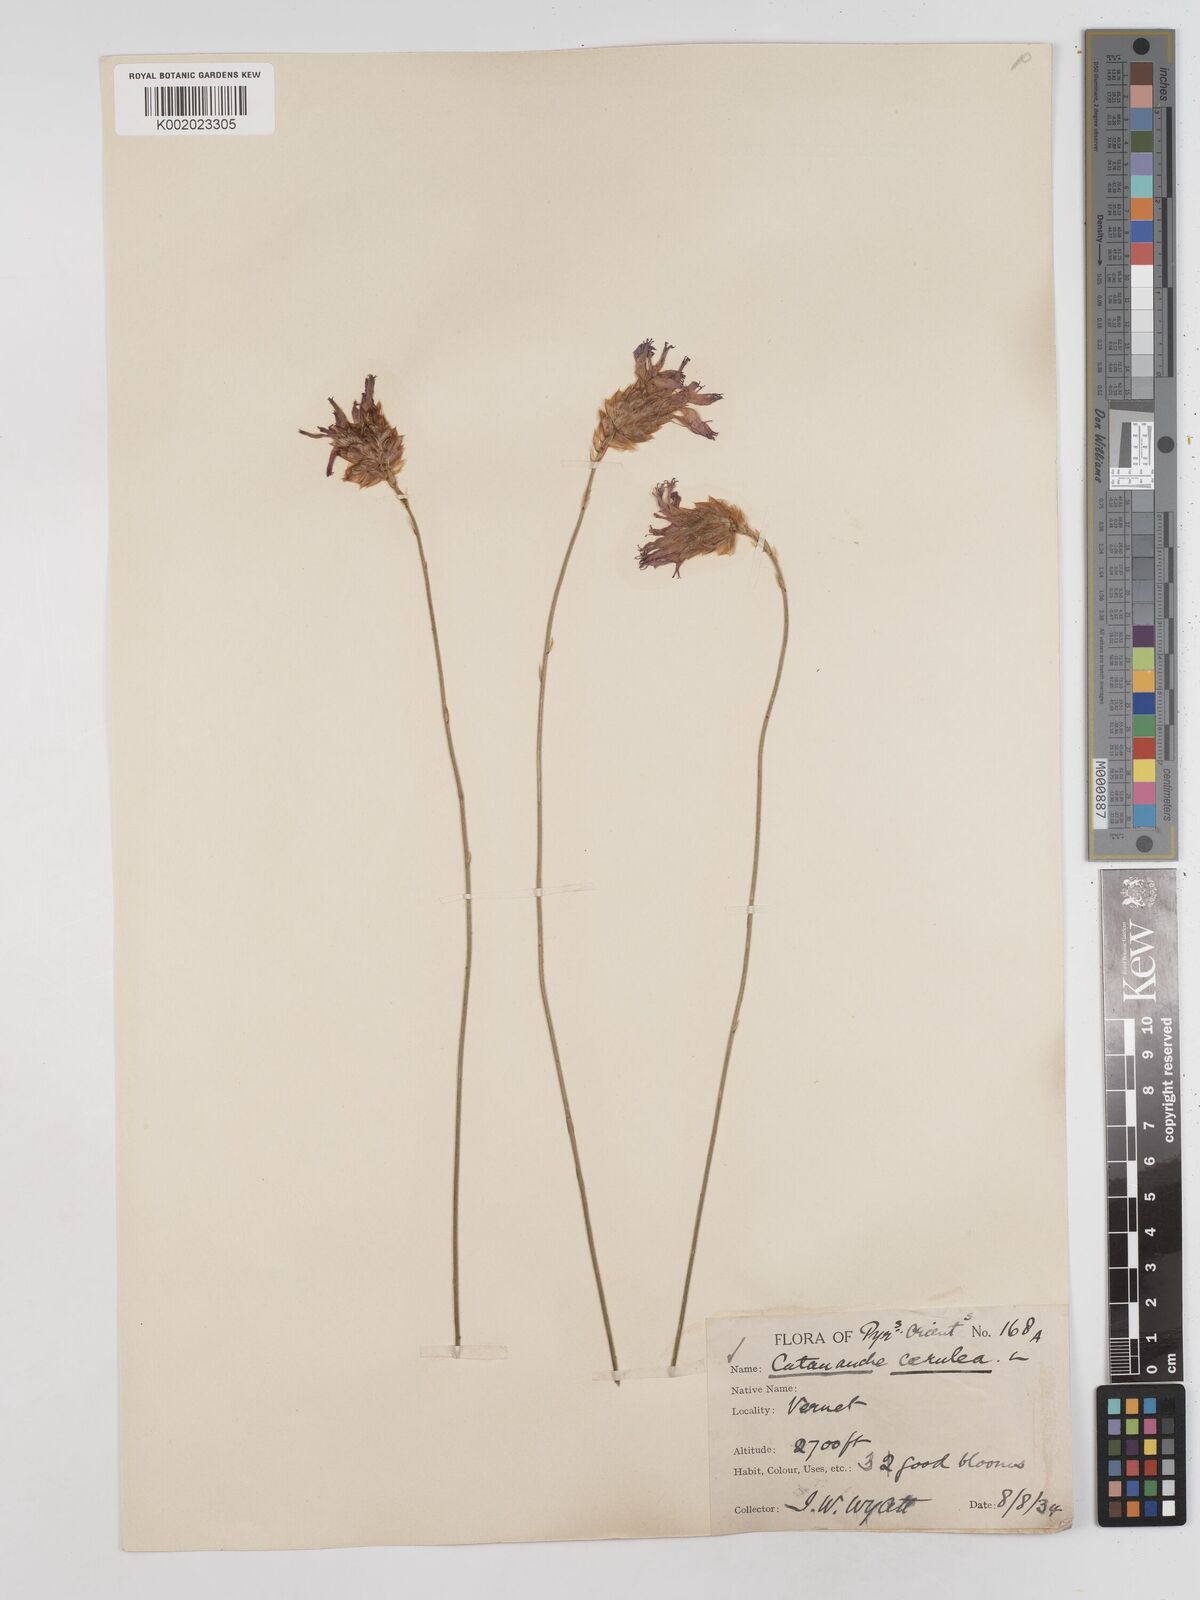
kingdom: Plantae
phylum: Tracheophyta
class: Magnoliopsida
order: Asterales
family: Asteraceae
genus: Catananche
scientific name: Catananche caerulea
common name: Blue cupidone
